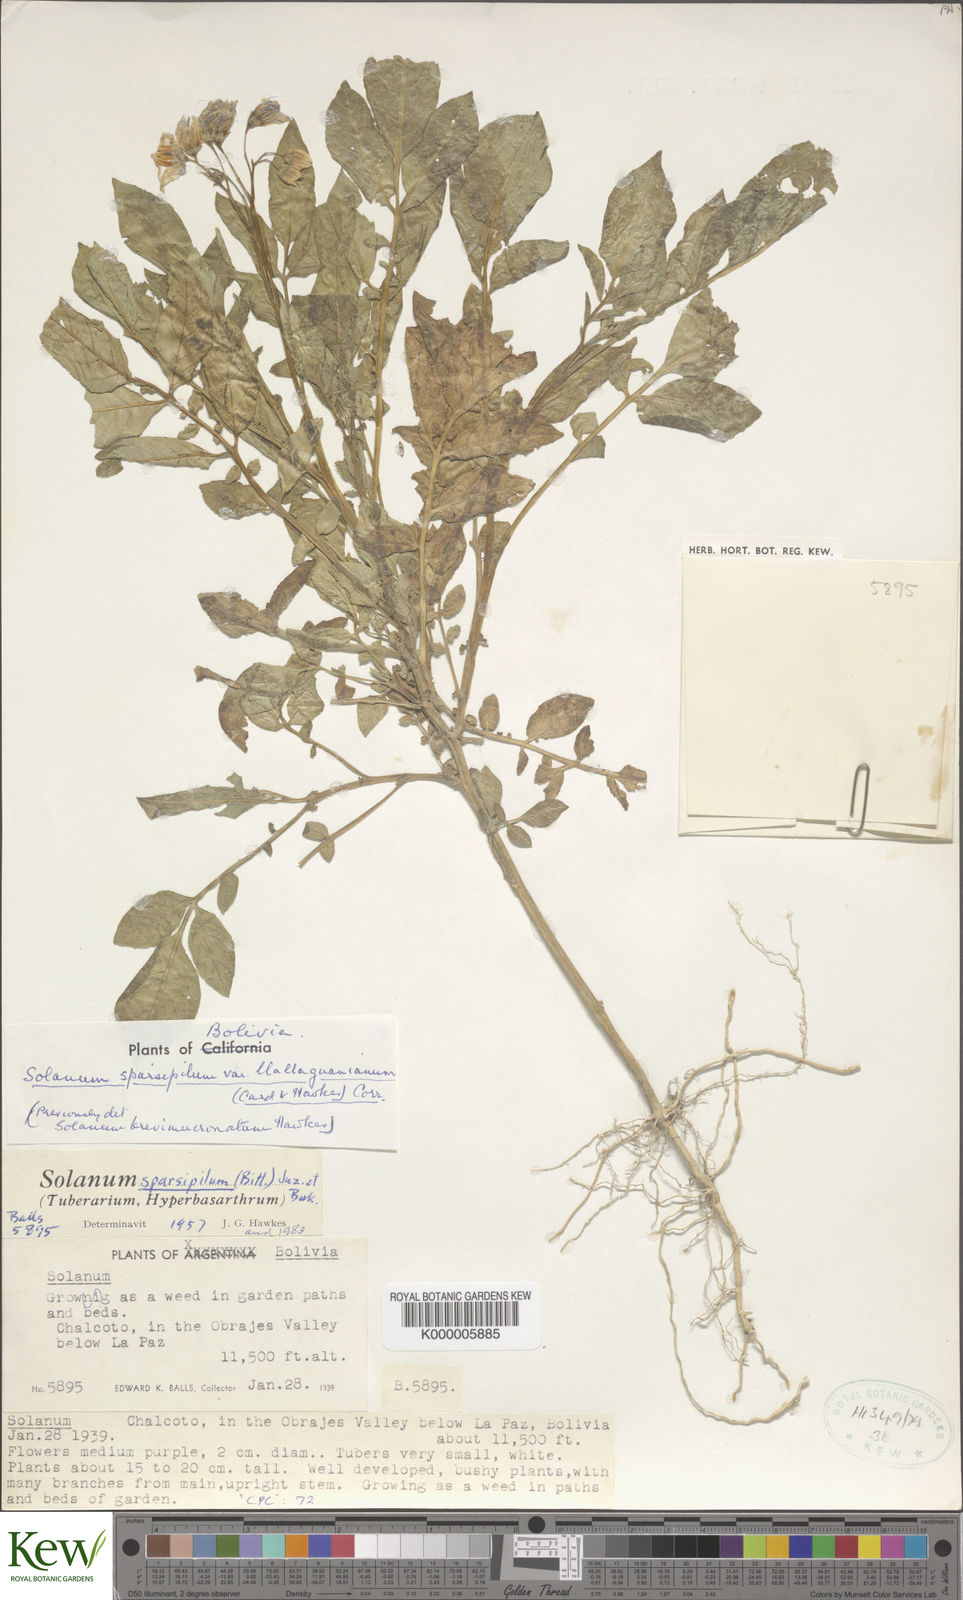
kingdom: Plantae
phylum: Tracheophyta
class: Magnoliopsida
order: Solanales
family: Solanaceae
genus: Solanum
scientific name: Solanum brevicaule
